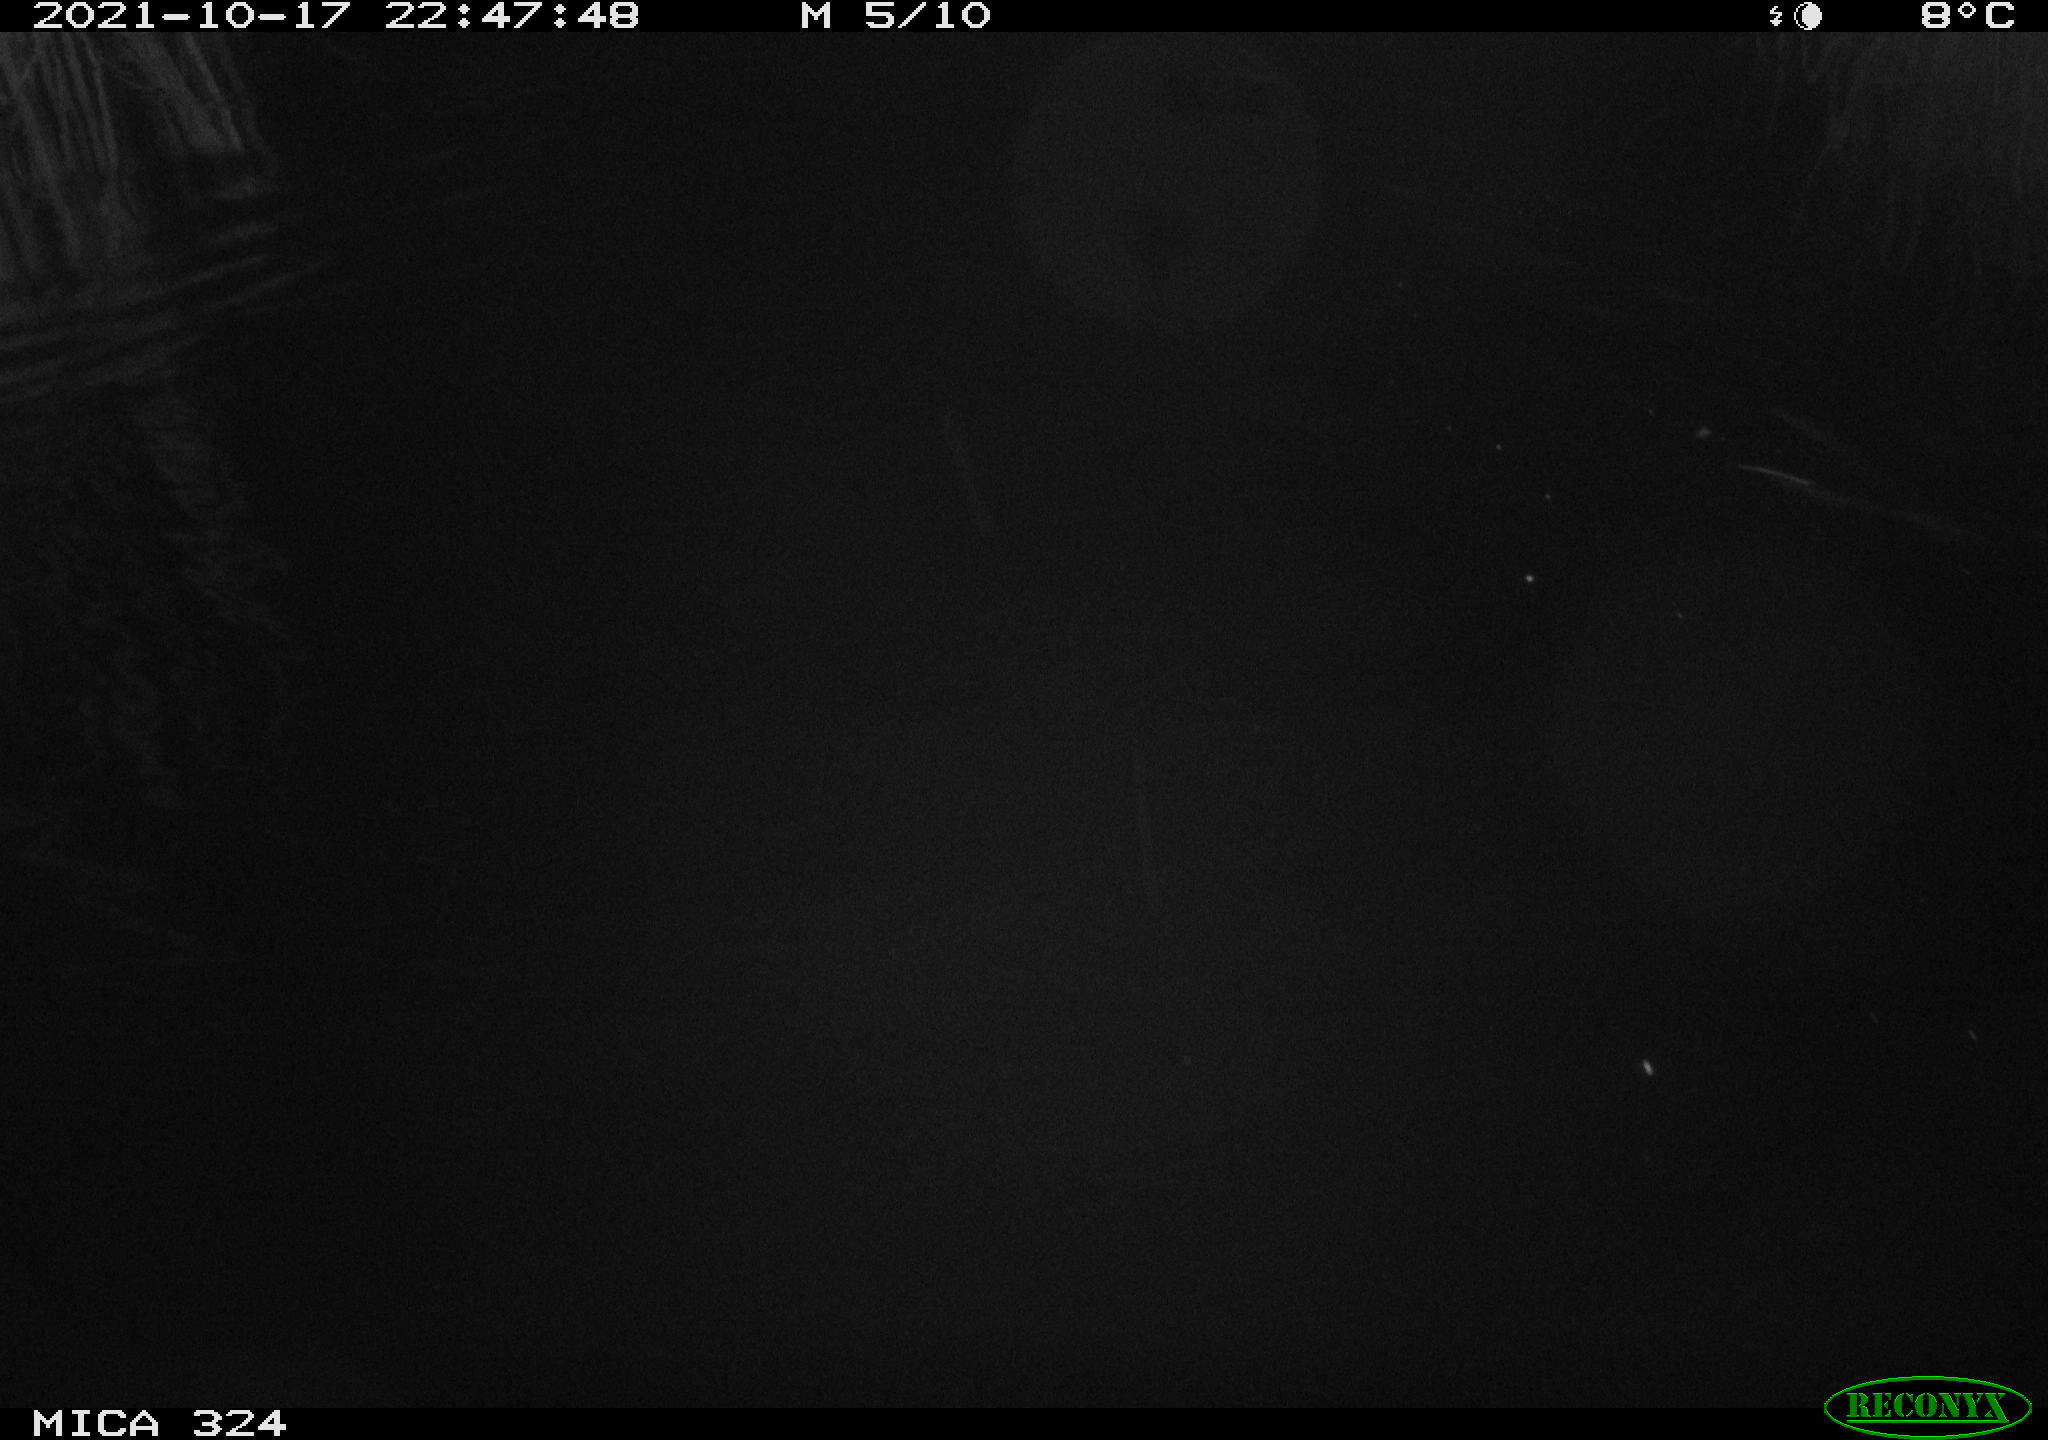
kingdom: Animalia
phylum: Chordata
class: Mammalia
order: Rodentia
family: Cricetidae
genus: Ondatra
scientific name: Ondatra zibethicus
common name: Muskrat
